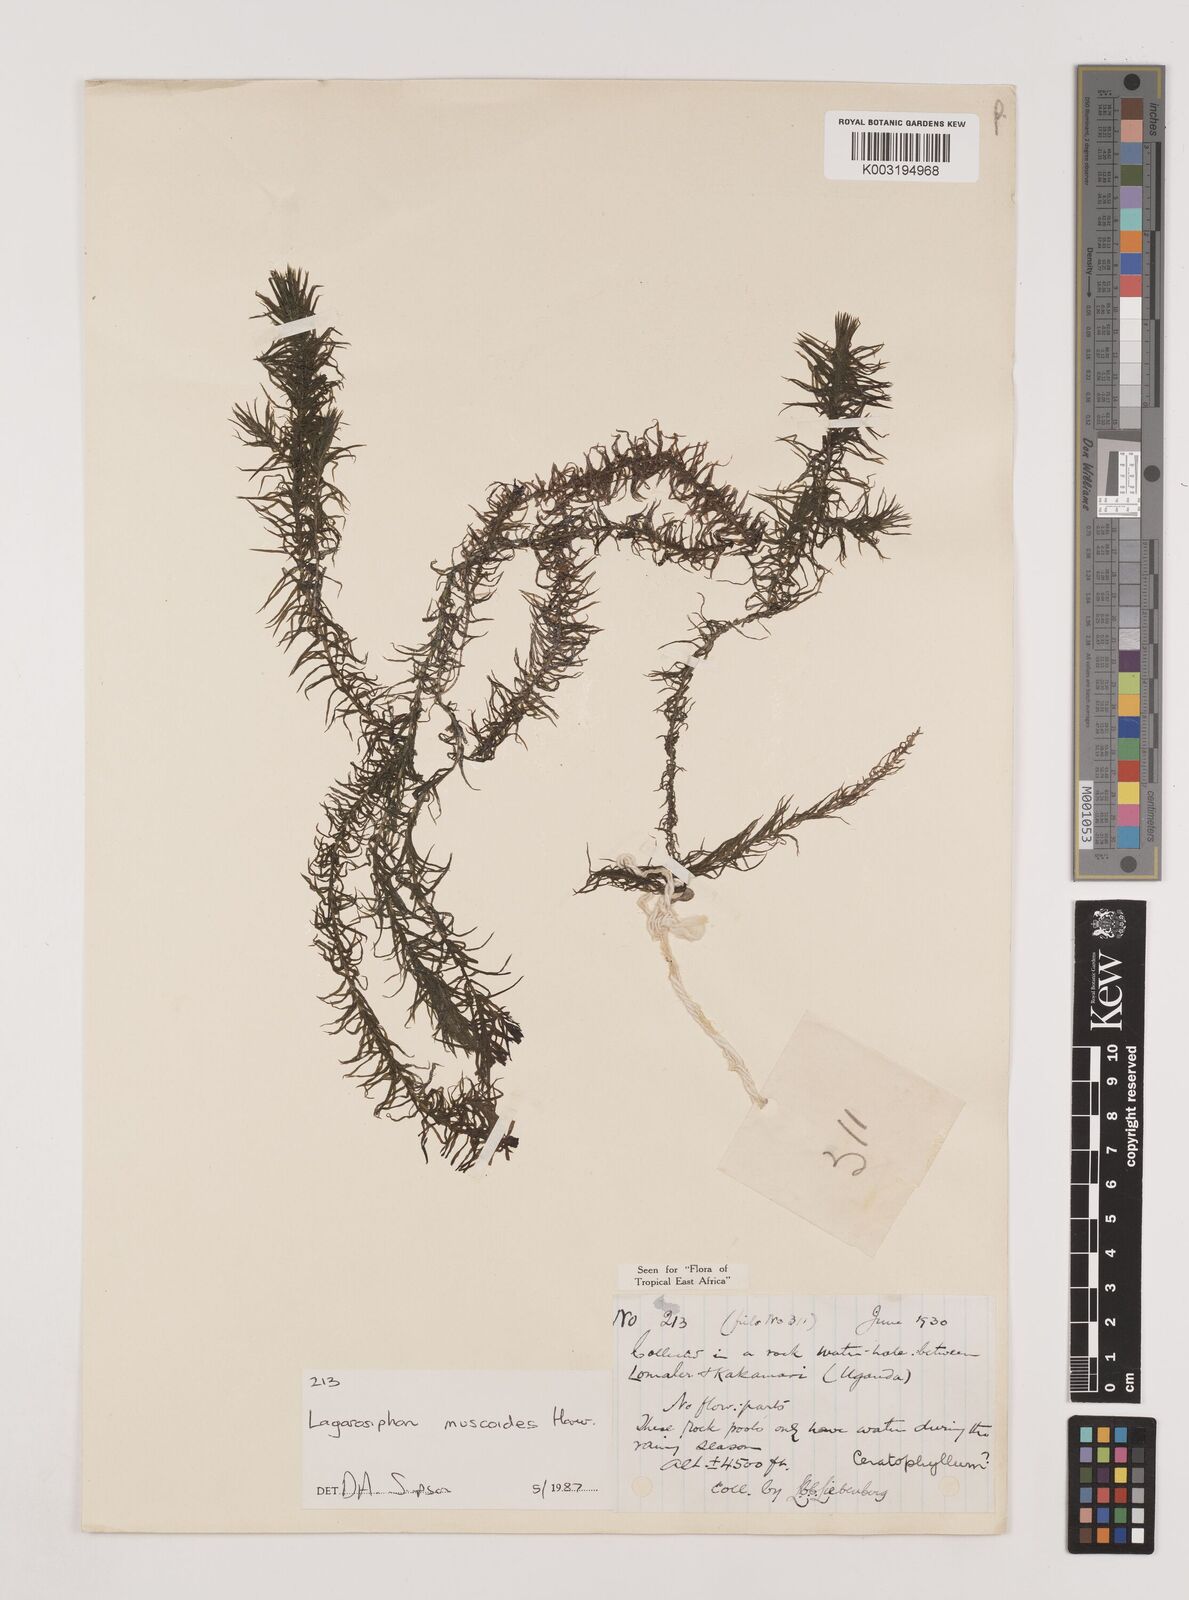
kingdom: Plantae
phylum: Tracheophyta
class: Liliopsida
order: Alismatales
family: Hydrocharitaceae
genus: Lagarosiphon
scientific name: Lagarosiphon muscoides
